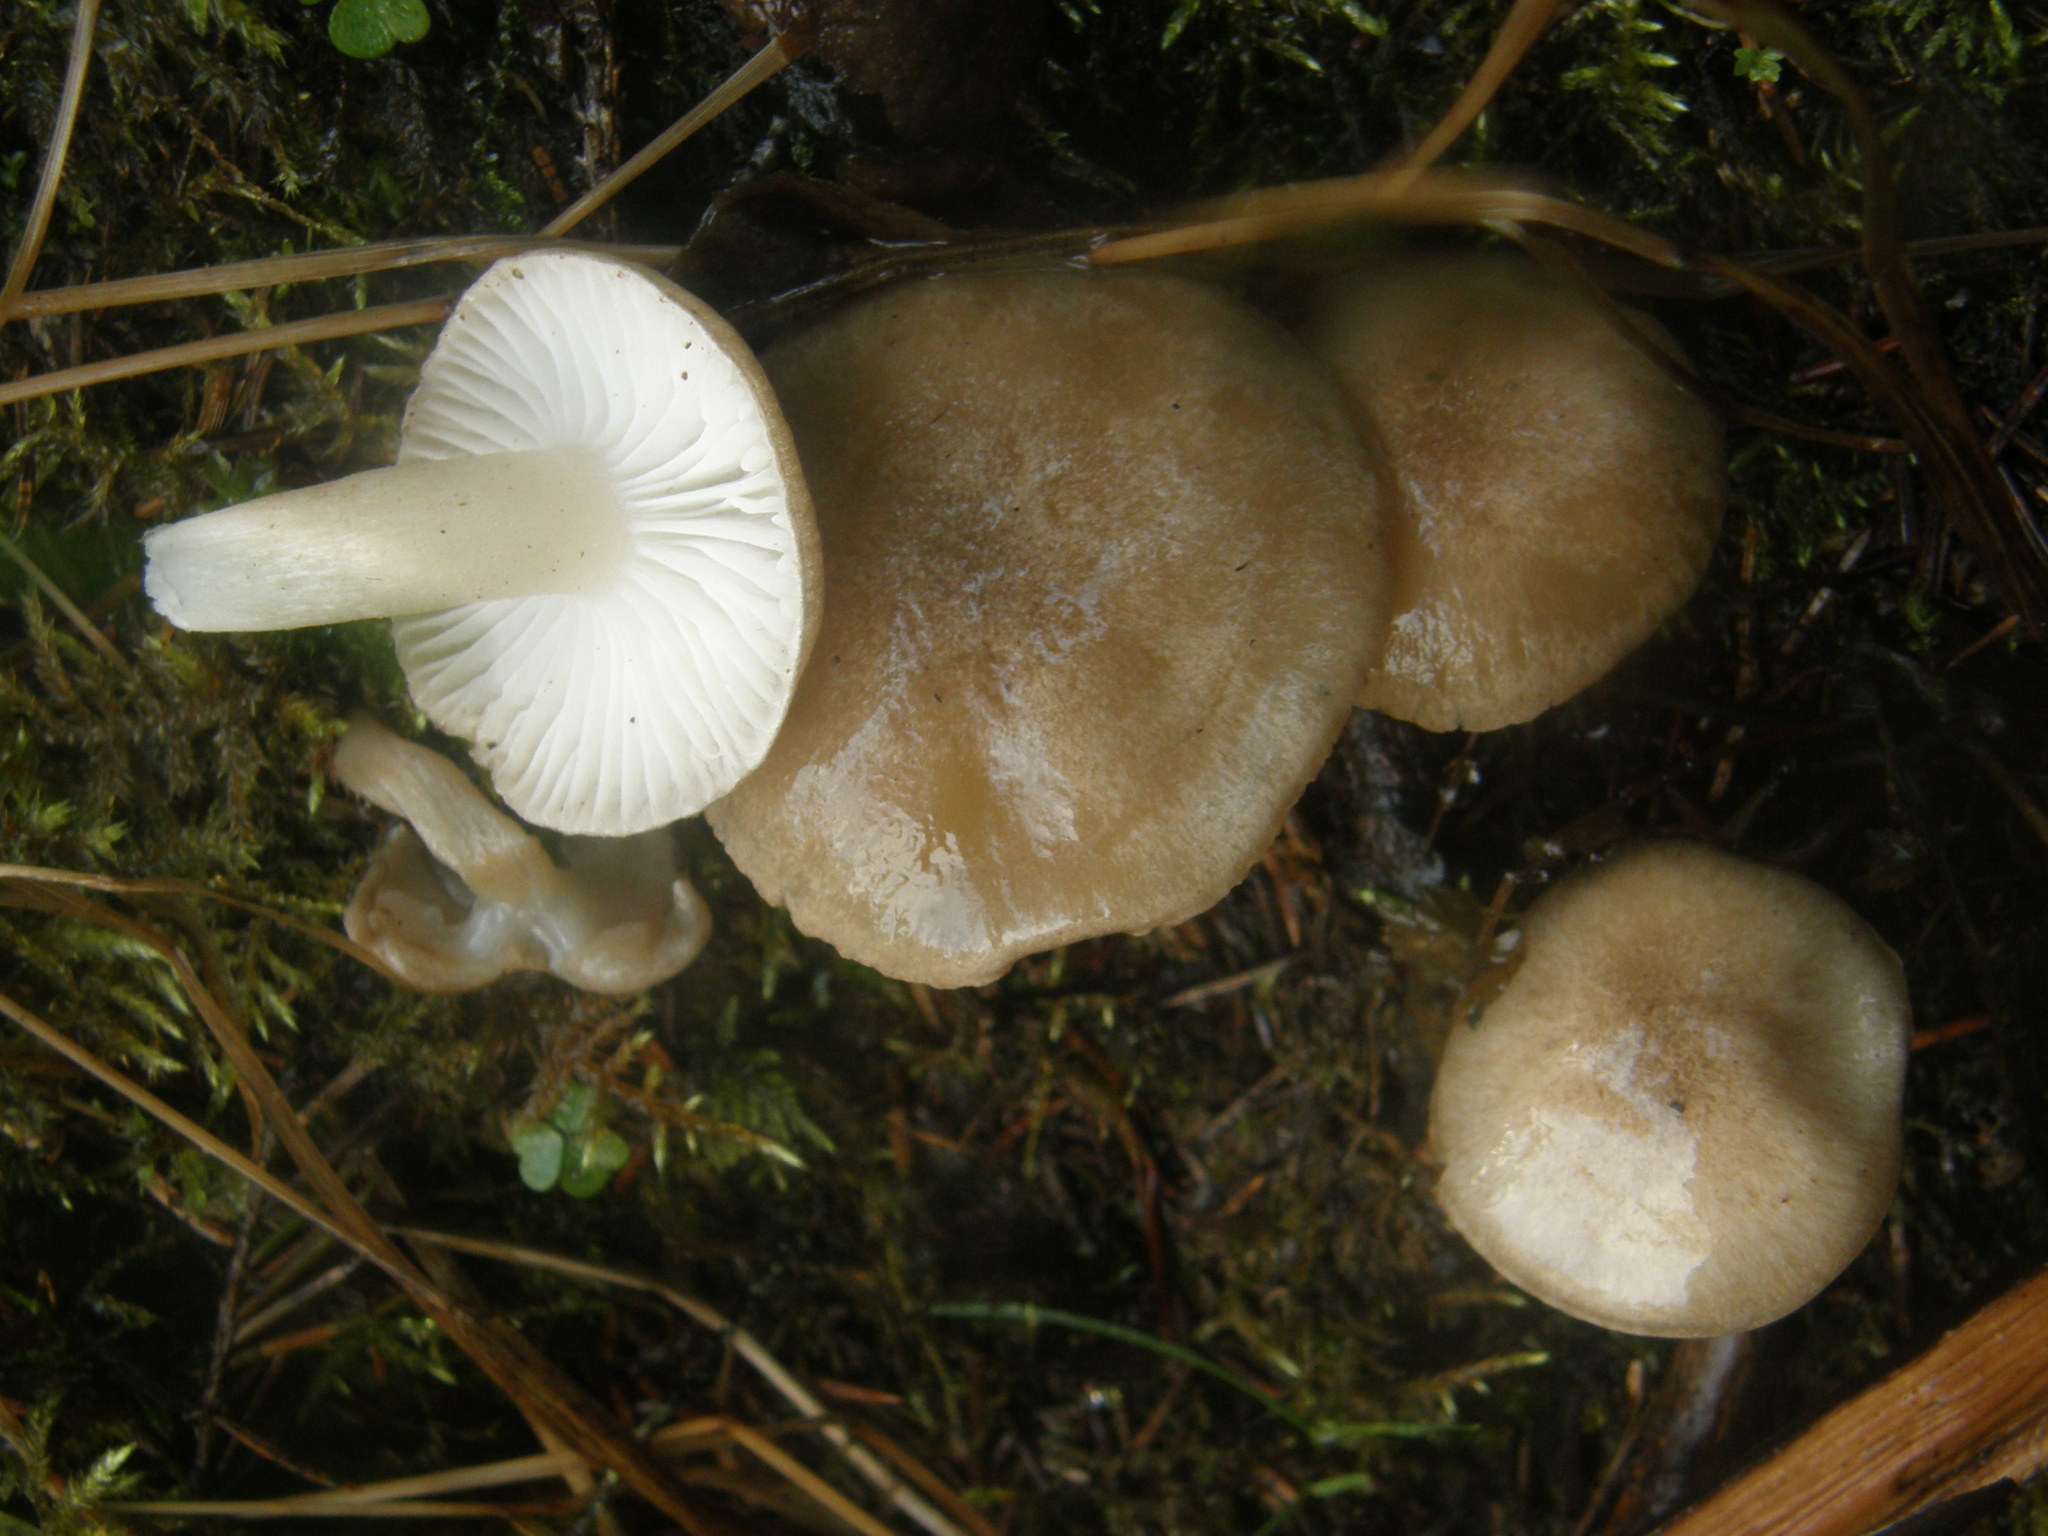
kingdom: Fungi
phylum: Basidiomycota
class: Agaricomycetes
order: Agaricales
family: Hygrophoraceae
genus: Hygrophorus
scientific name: Hygrophorus agathosmus
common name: Almond woodwax
